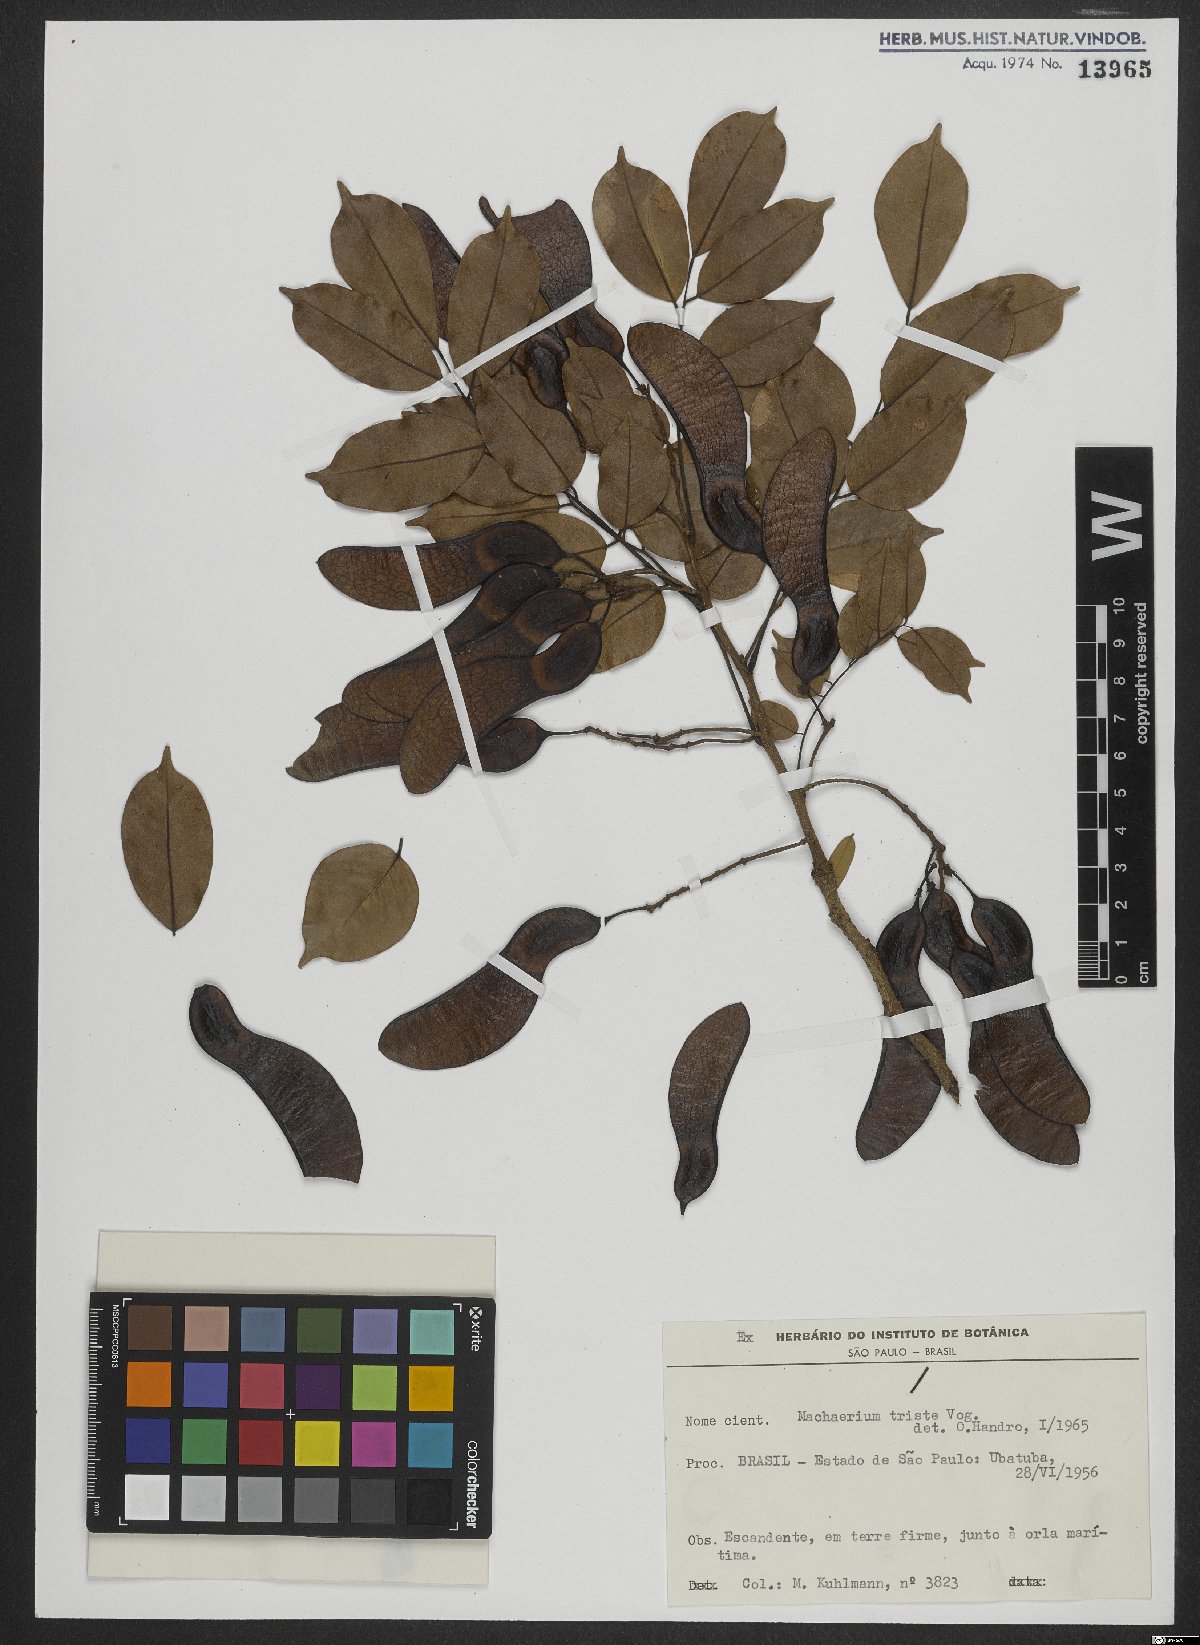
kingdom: Plantae
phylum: Tracheophyta
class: Magnoliopsida
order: Fabales
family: Fabaceae
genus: Machaerium
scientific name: Machaerium brasiliense
